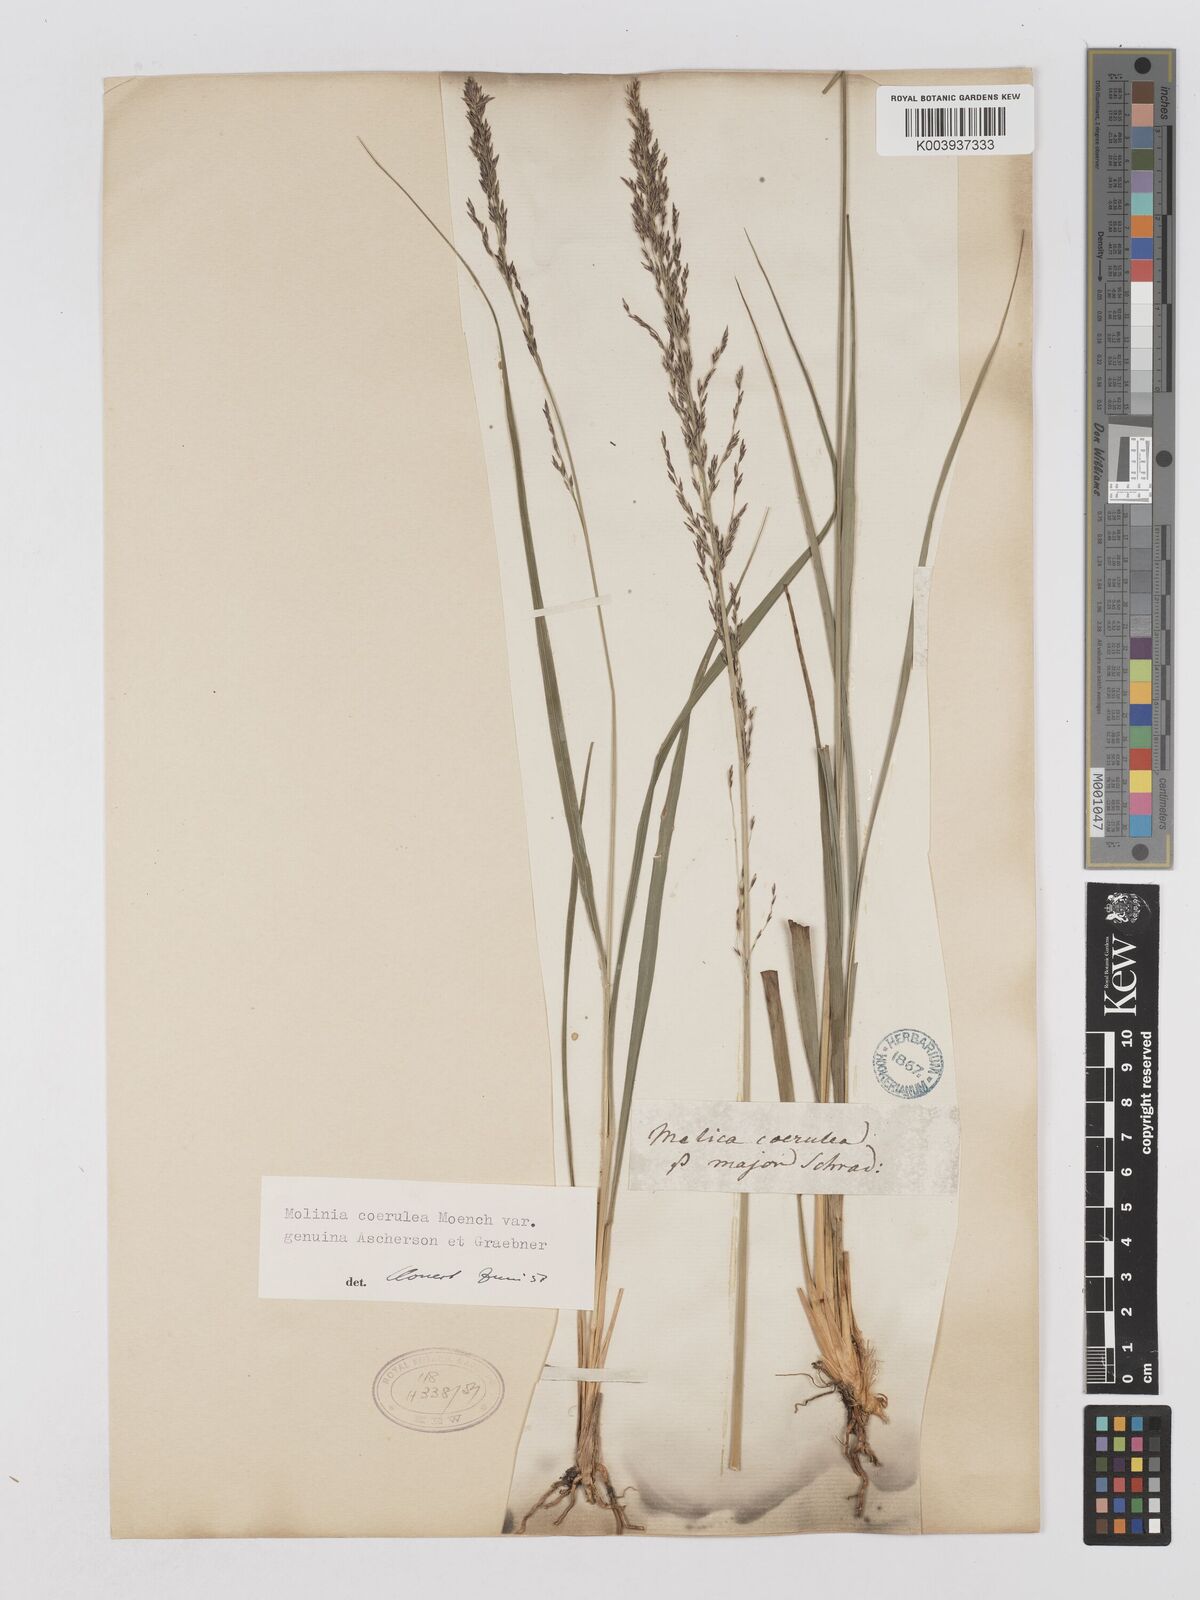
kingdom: Plantae
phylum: Tracheophyta
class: Liliopsida
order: Poales
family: Poaceae
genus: Molinia
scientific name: Molinia caerulea
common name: Purple moor-grass
